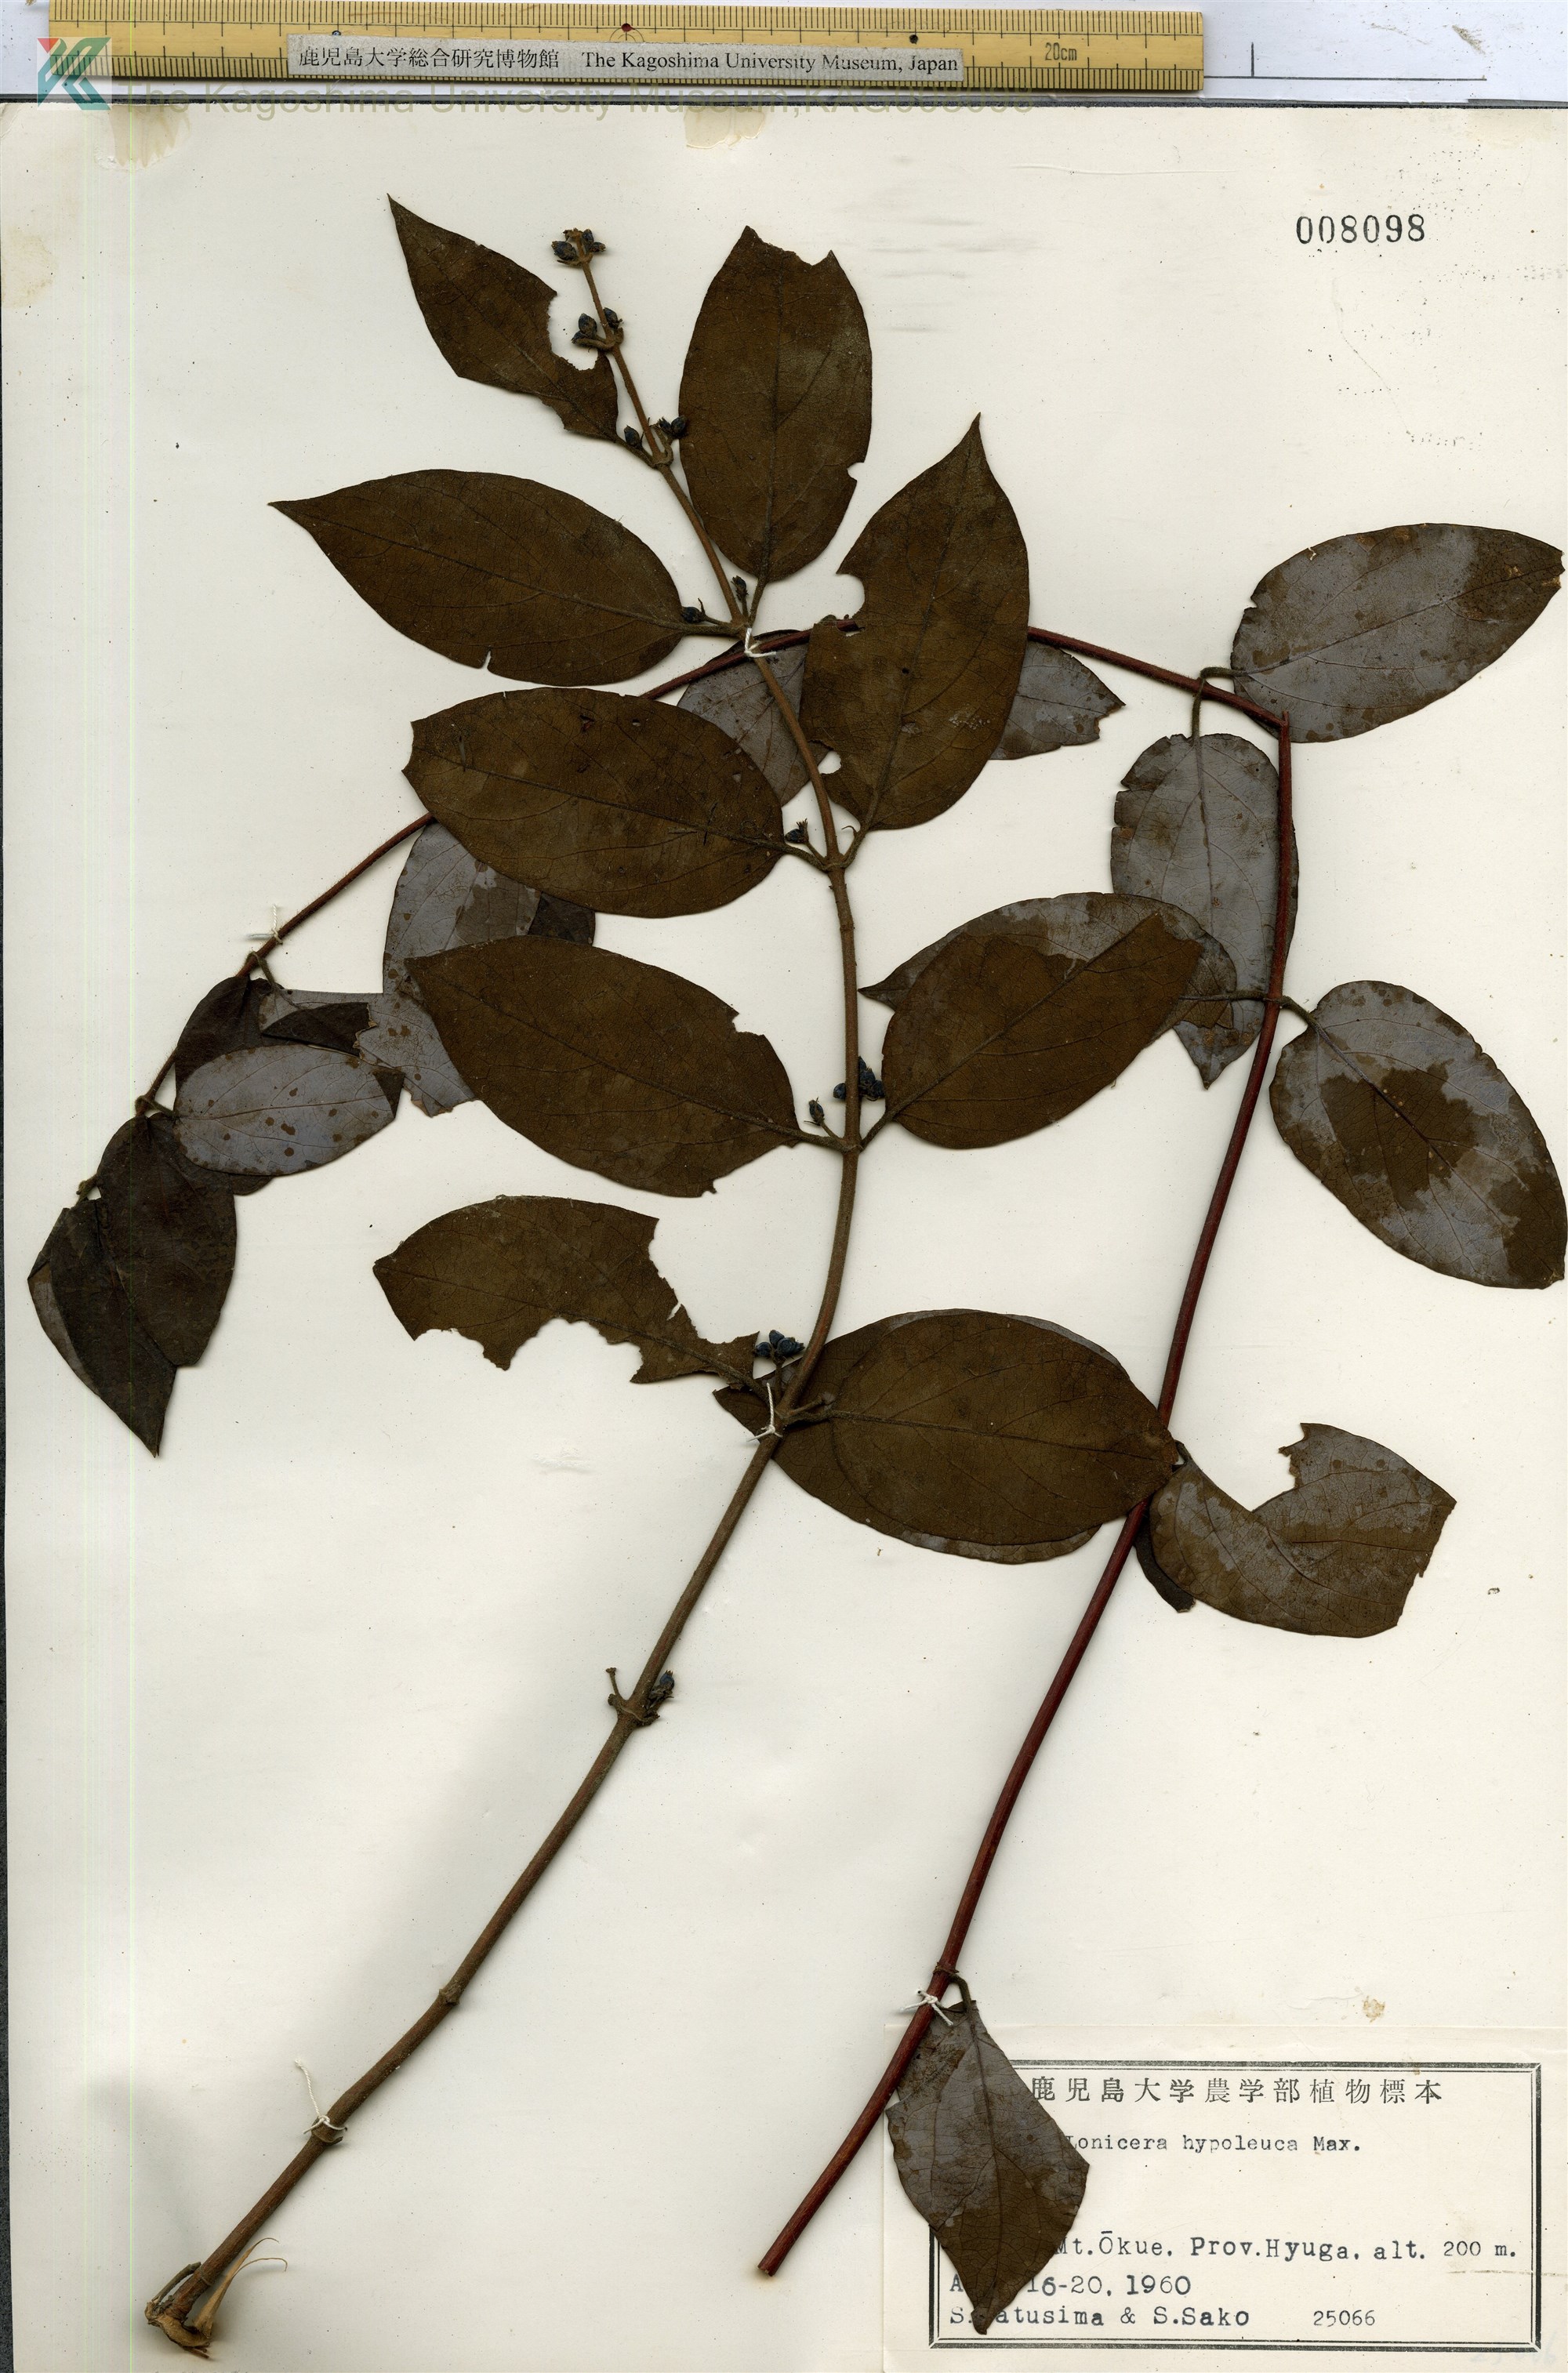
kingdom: Plantae
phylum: Tracheophyta
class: Magnoliopsida
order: Dipsacales
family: Caprifoliaceae
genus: Lonicera
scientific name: Lonicera hypoglauca
